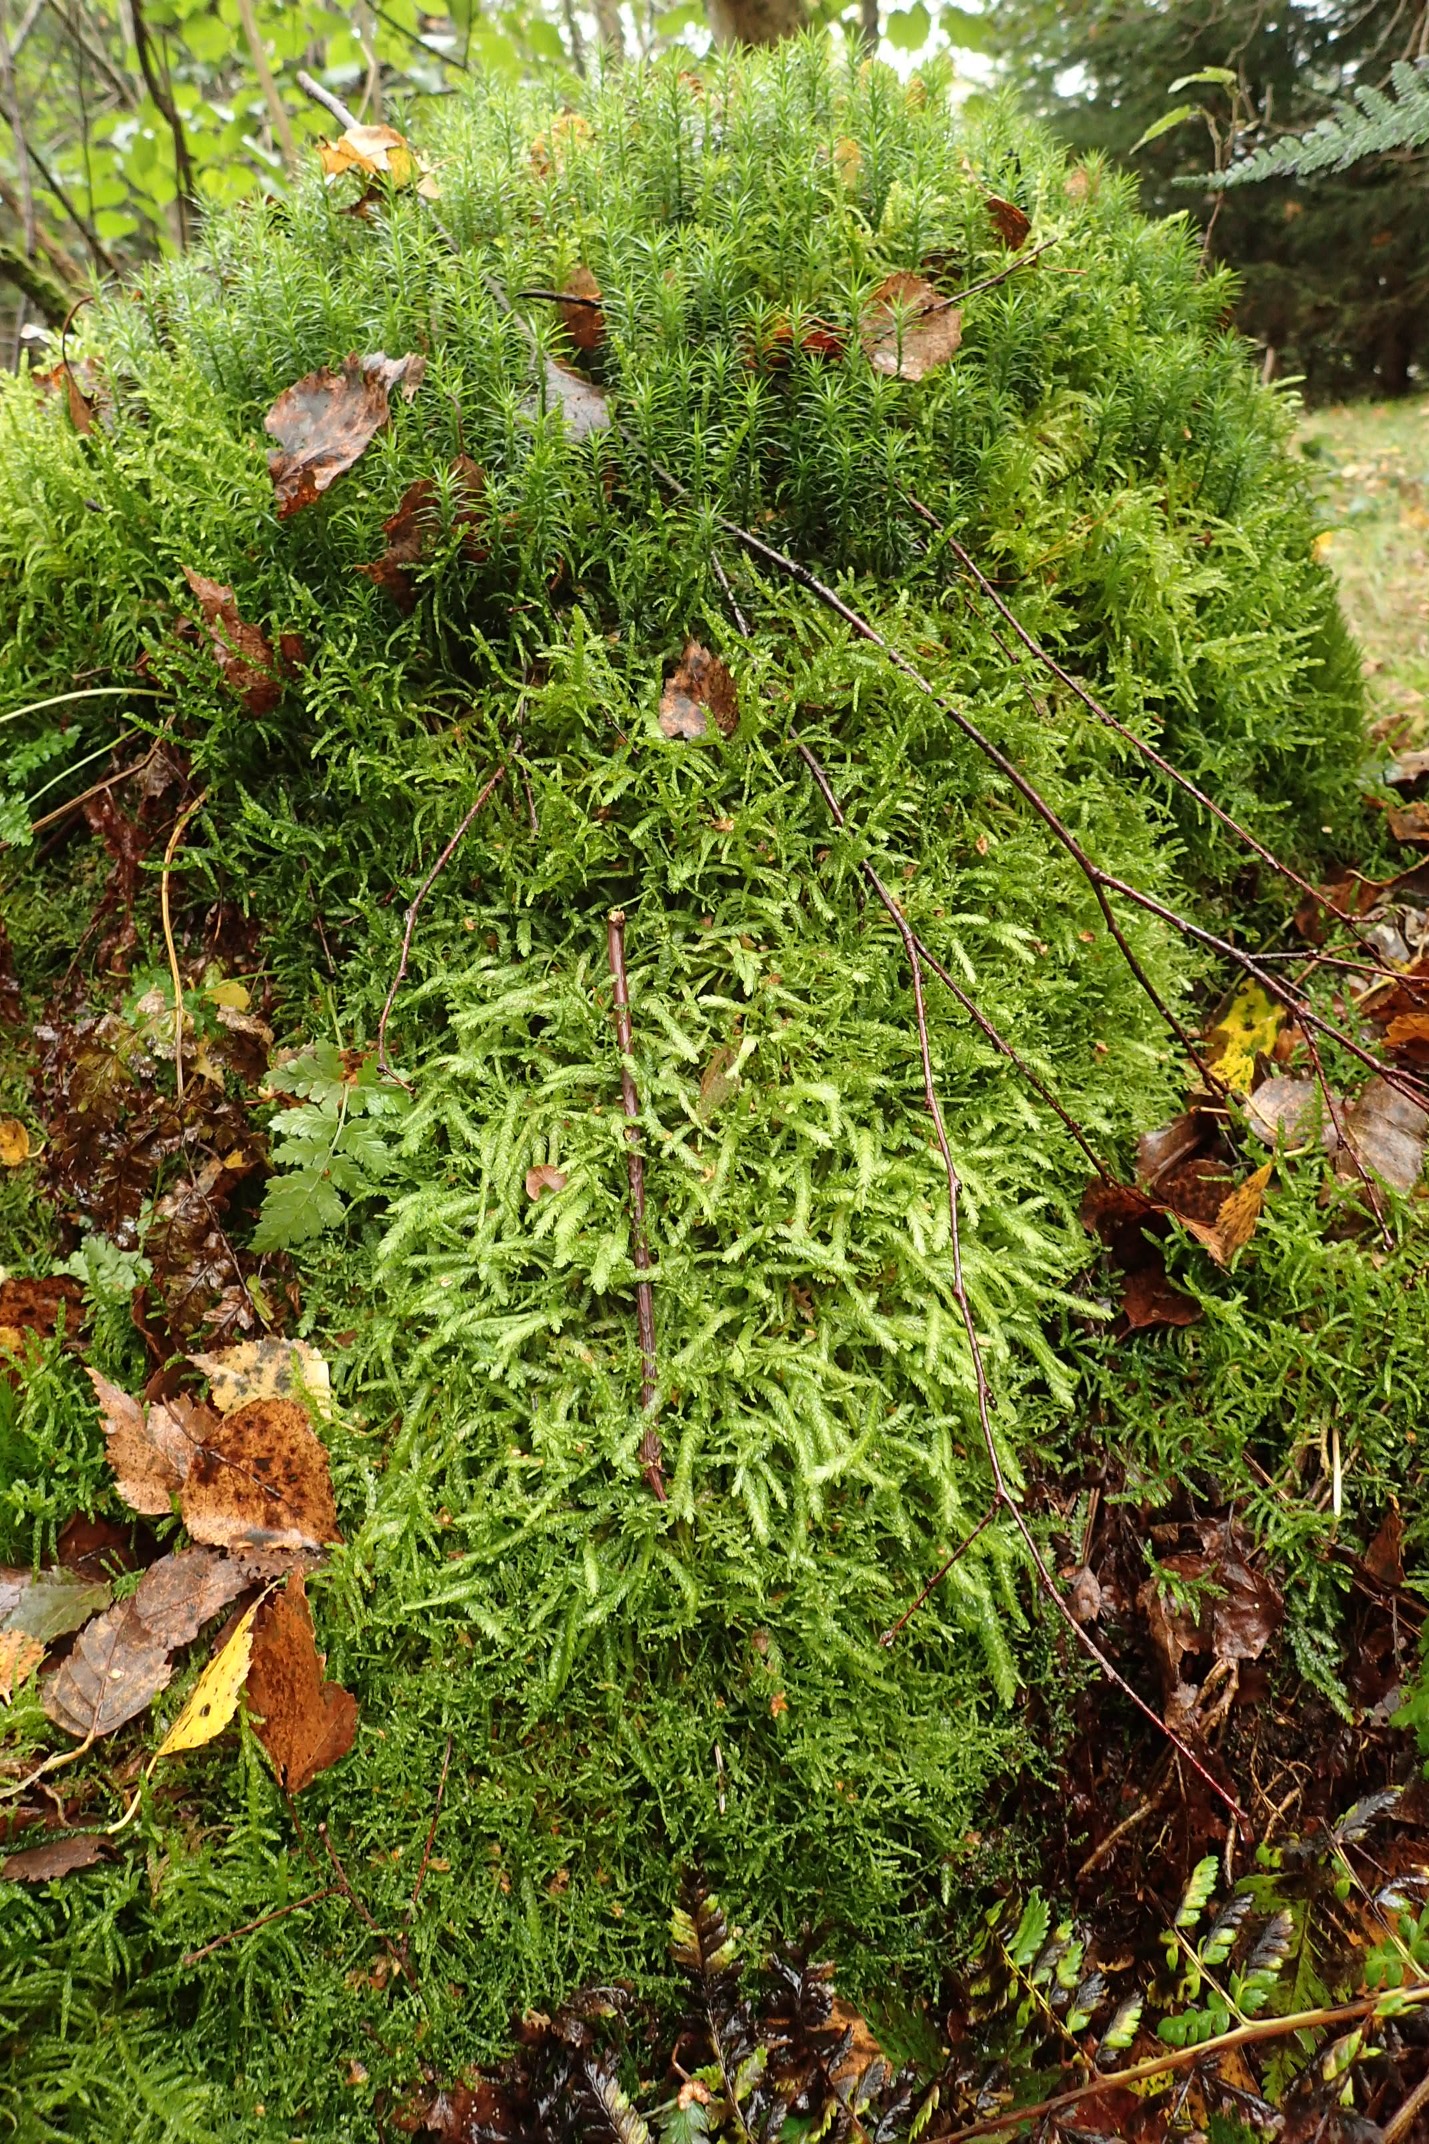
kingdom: Plantae
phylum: Bryophyta
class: Bryopsida
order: Hypnales
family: Plagiotheciaceae
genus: Plagiothecium
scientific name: Plagiothecium undulatum
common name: Bølget tæppemos
